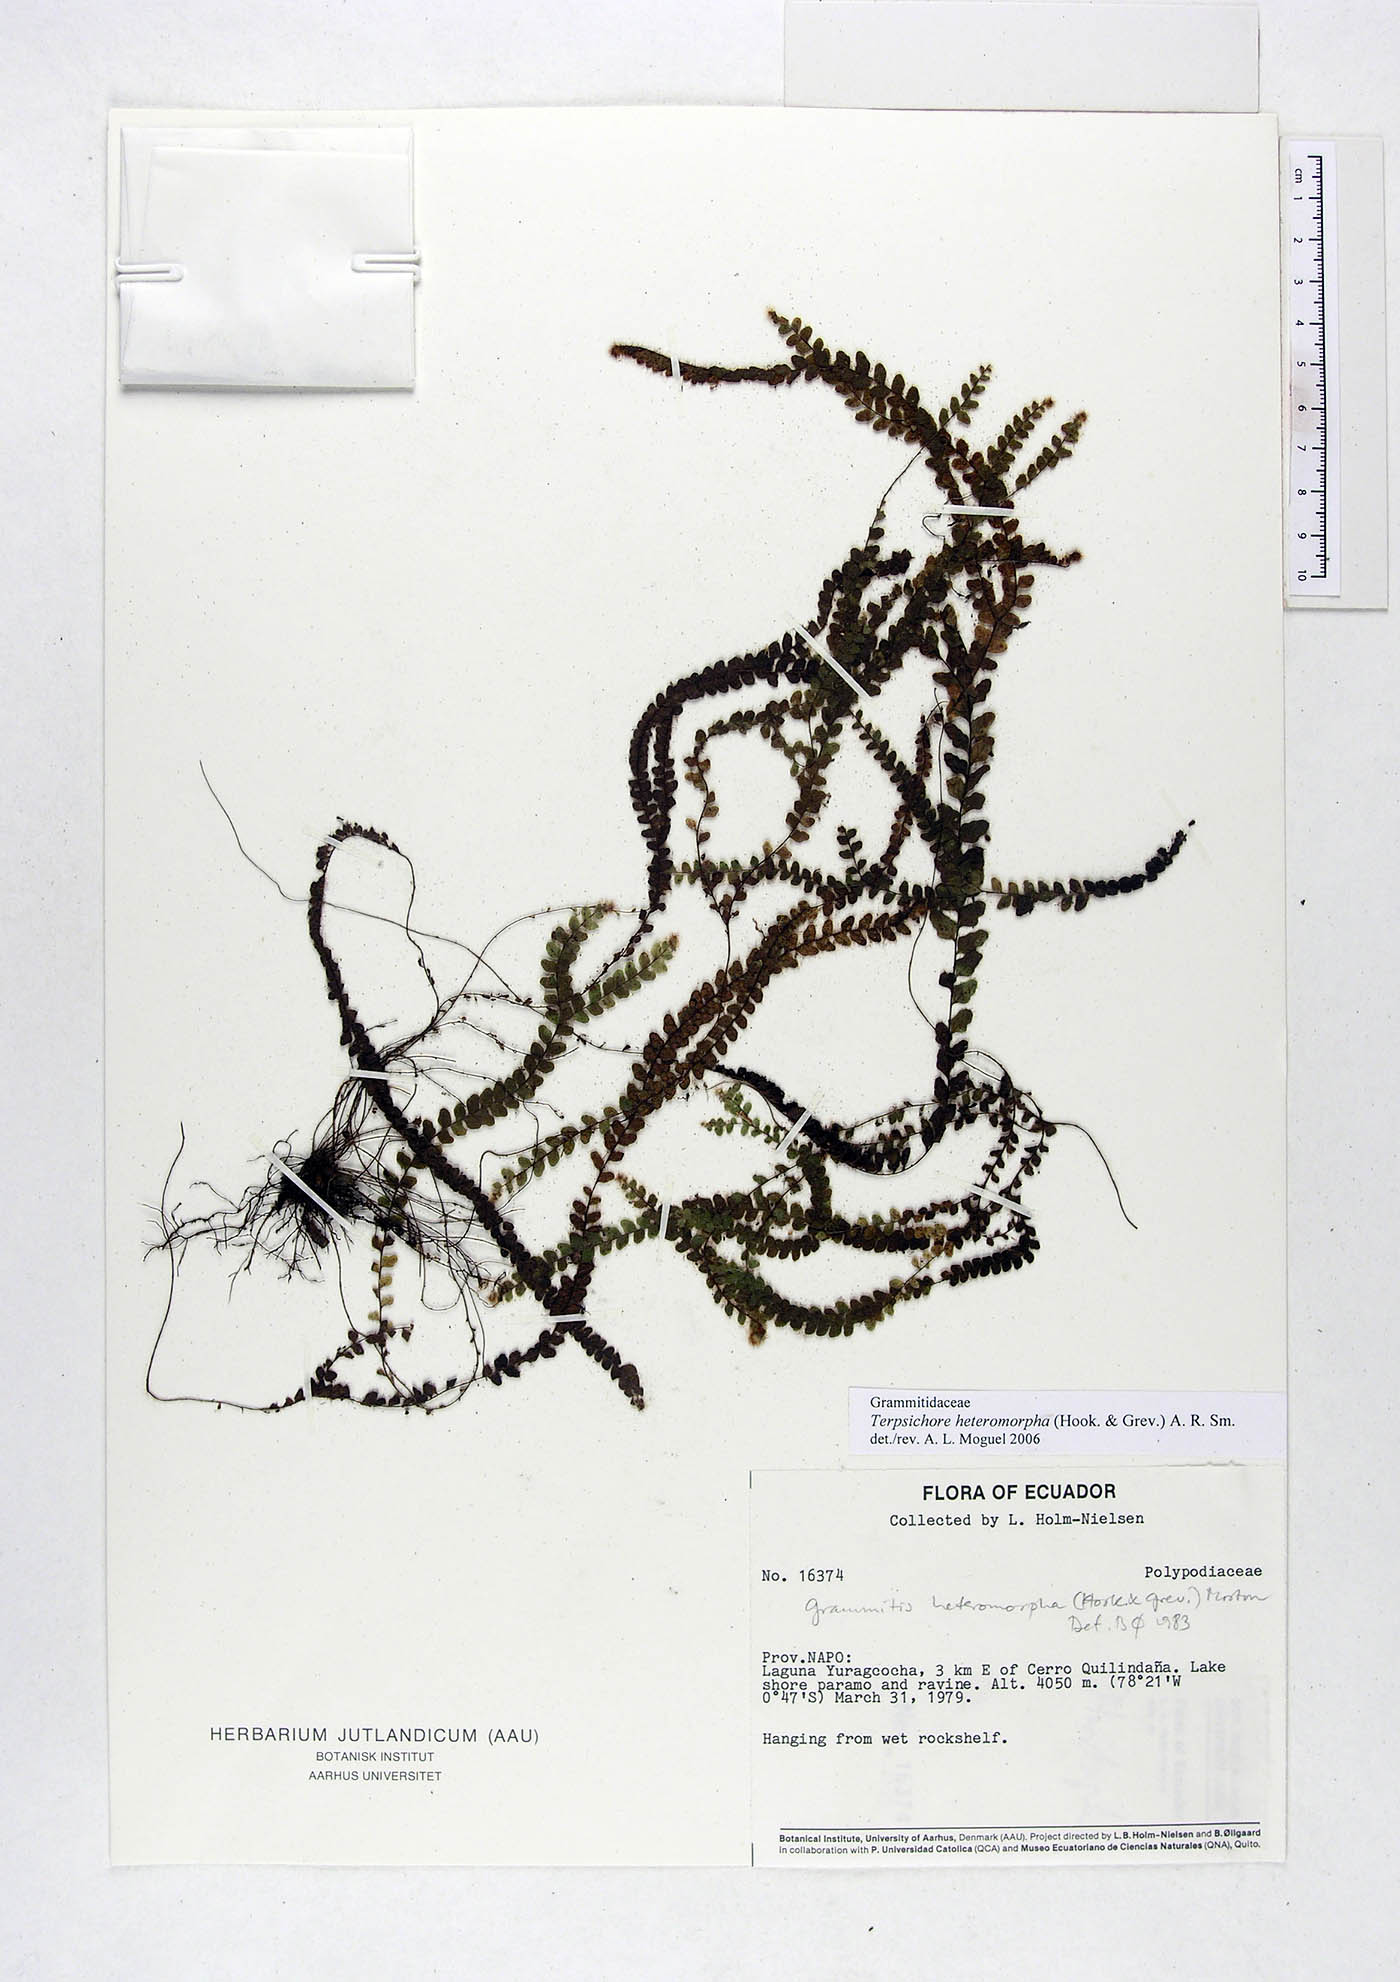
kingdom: Plantae
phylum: Tracheophyta
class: Polypodiopsida
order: Polypodiales
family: Polypodiaceae
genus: Alansmia
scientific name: Alansmia heteromorpha
